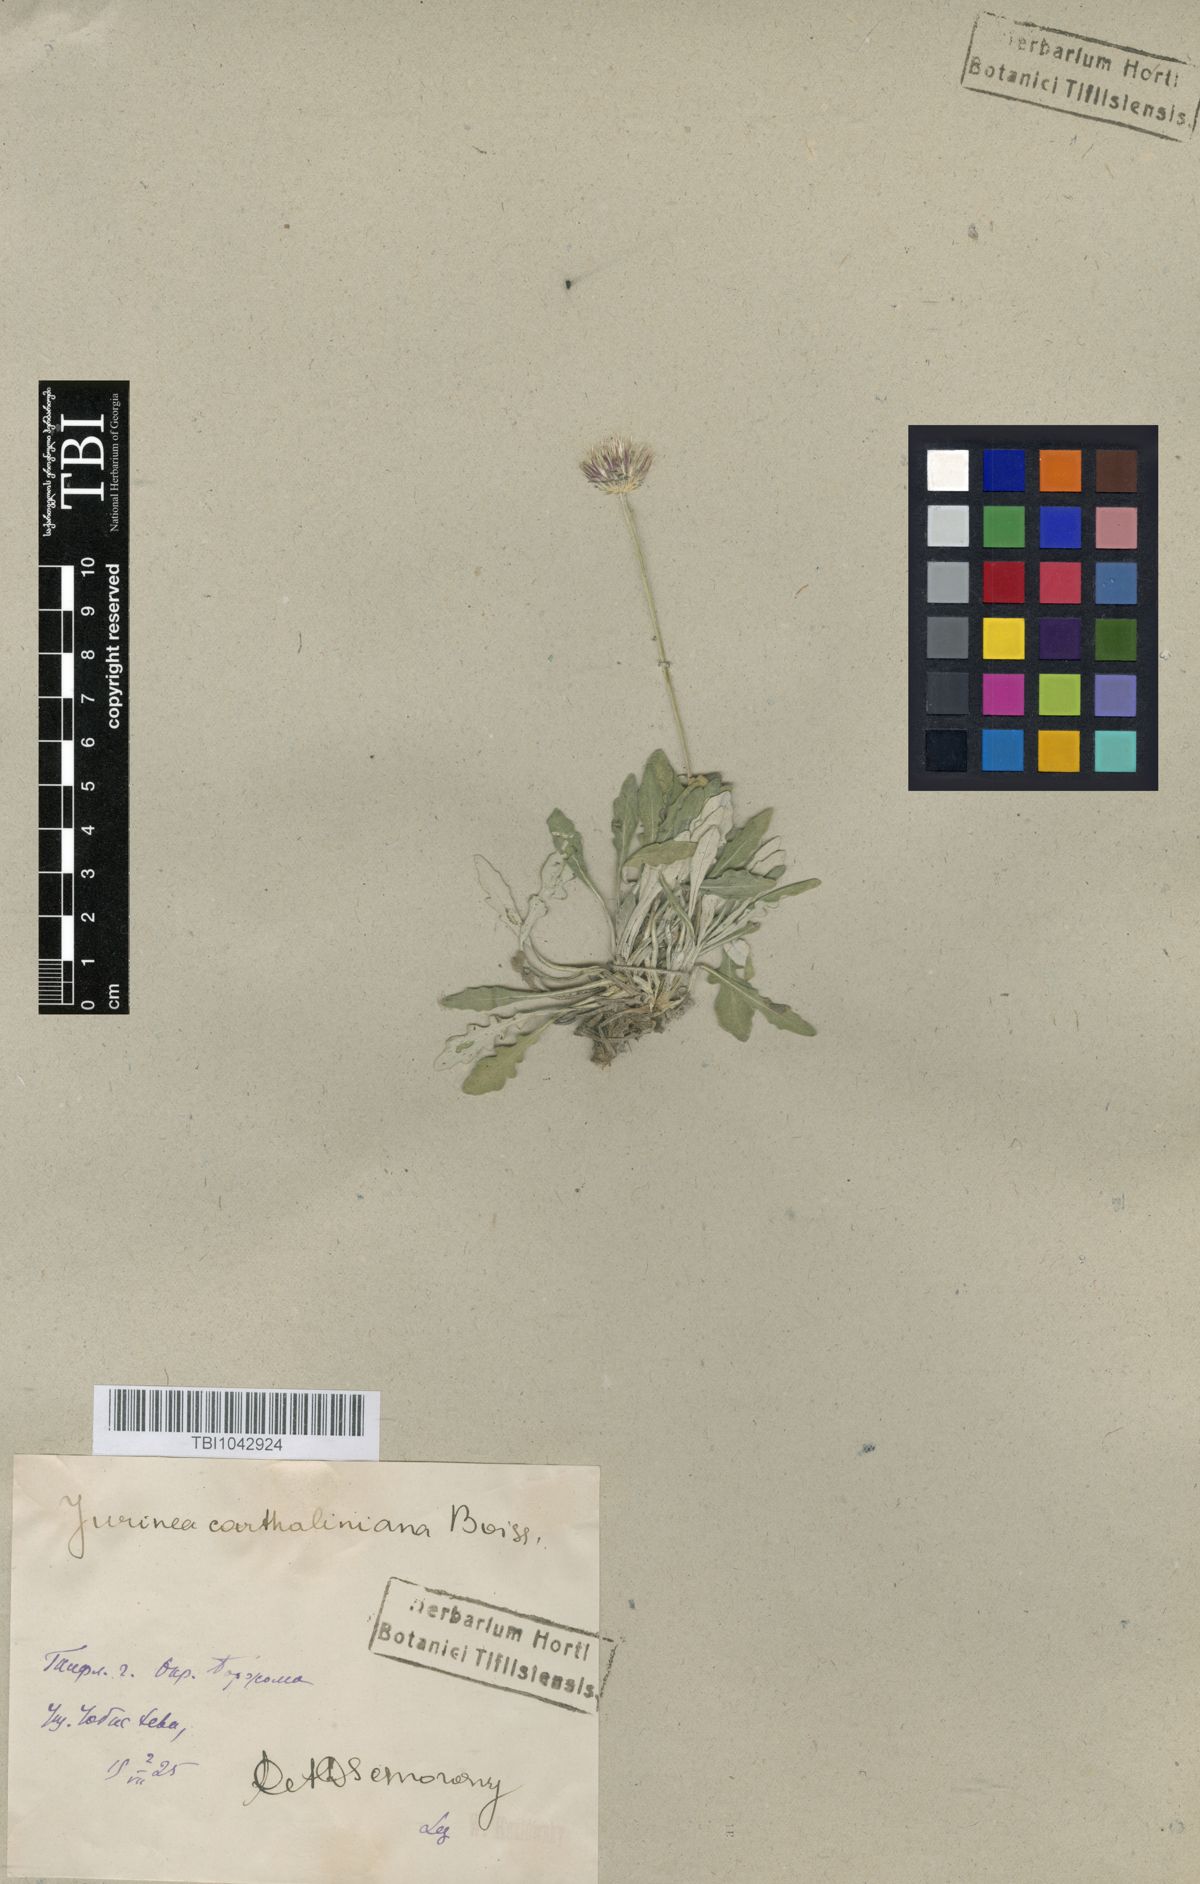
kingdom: Plantae
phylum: Tracheophyta
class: Magnoliopsida
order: Asterales
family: Asteraceae
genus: Jurinea
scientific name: Jurinea cartaliniana
